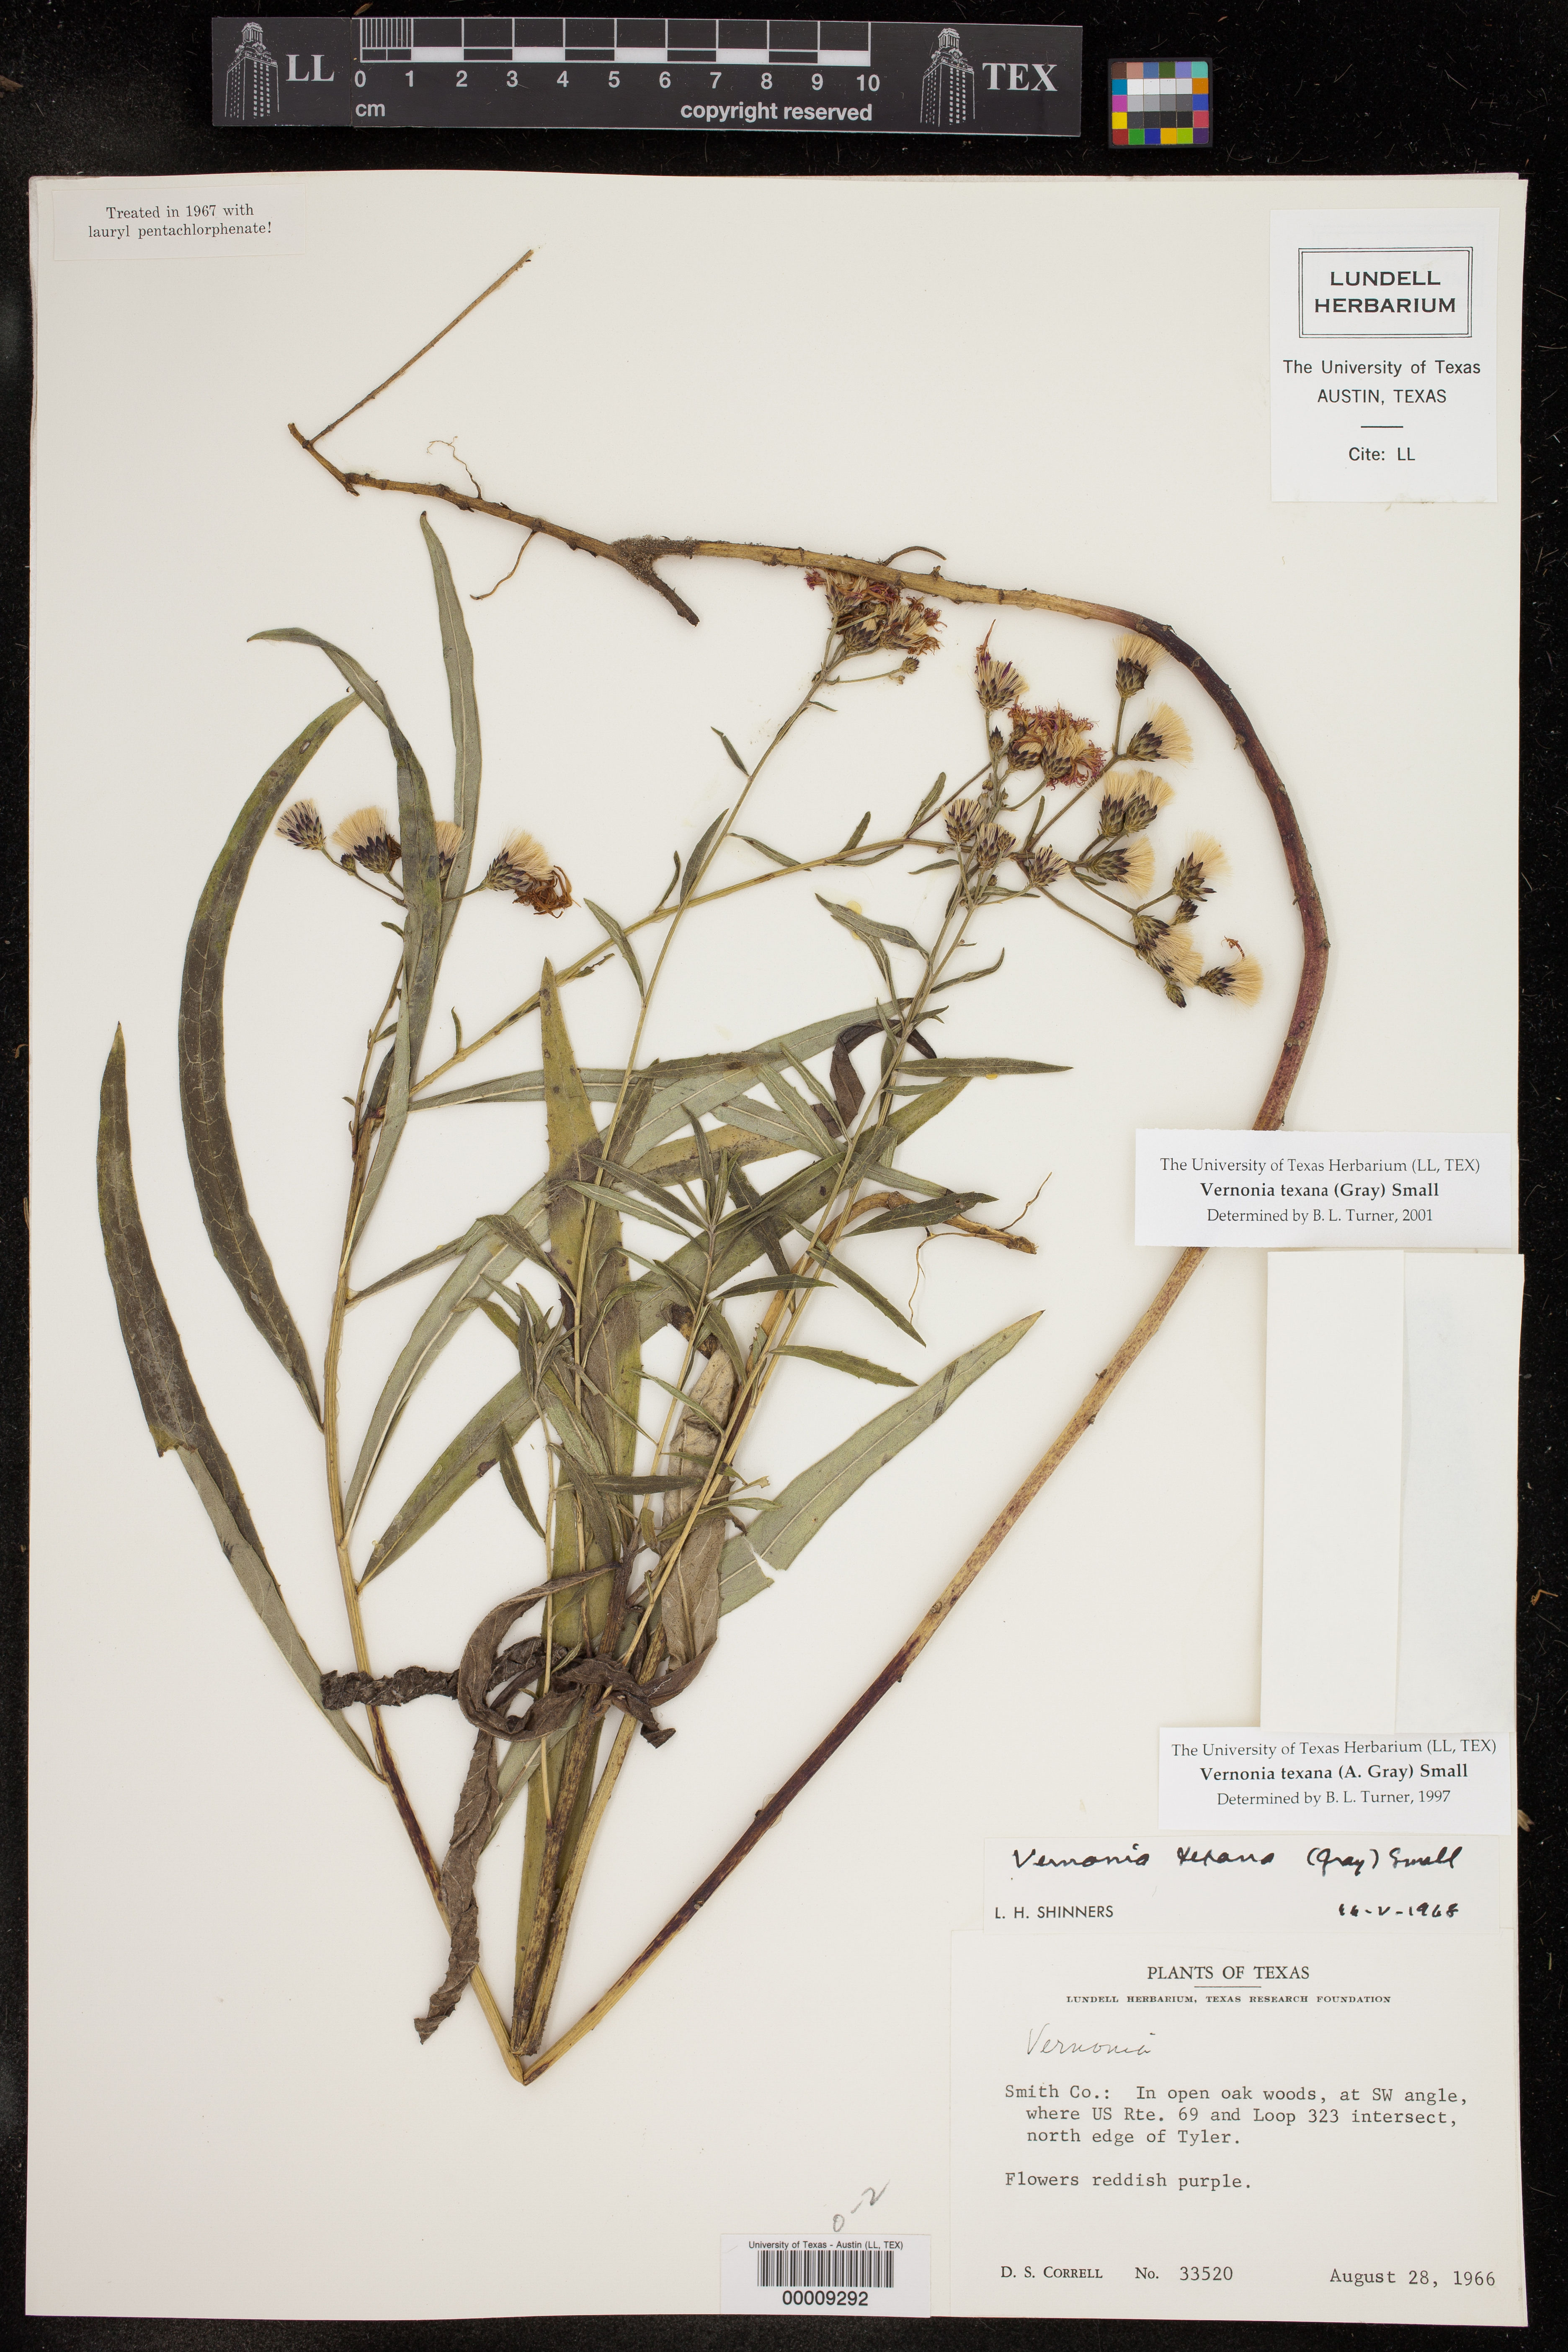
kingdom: Plantae
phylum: Tracheophyta
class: Magnoliopsida
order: Asterales
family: Asteraceae
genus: Vernonia
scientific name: Vernonia texana
